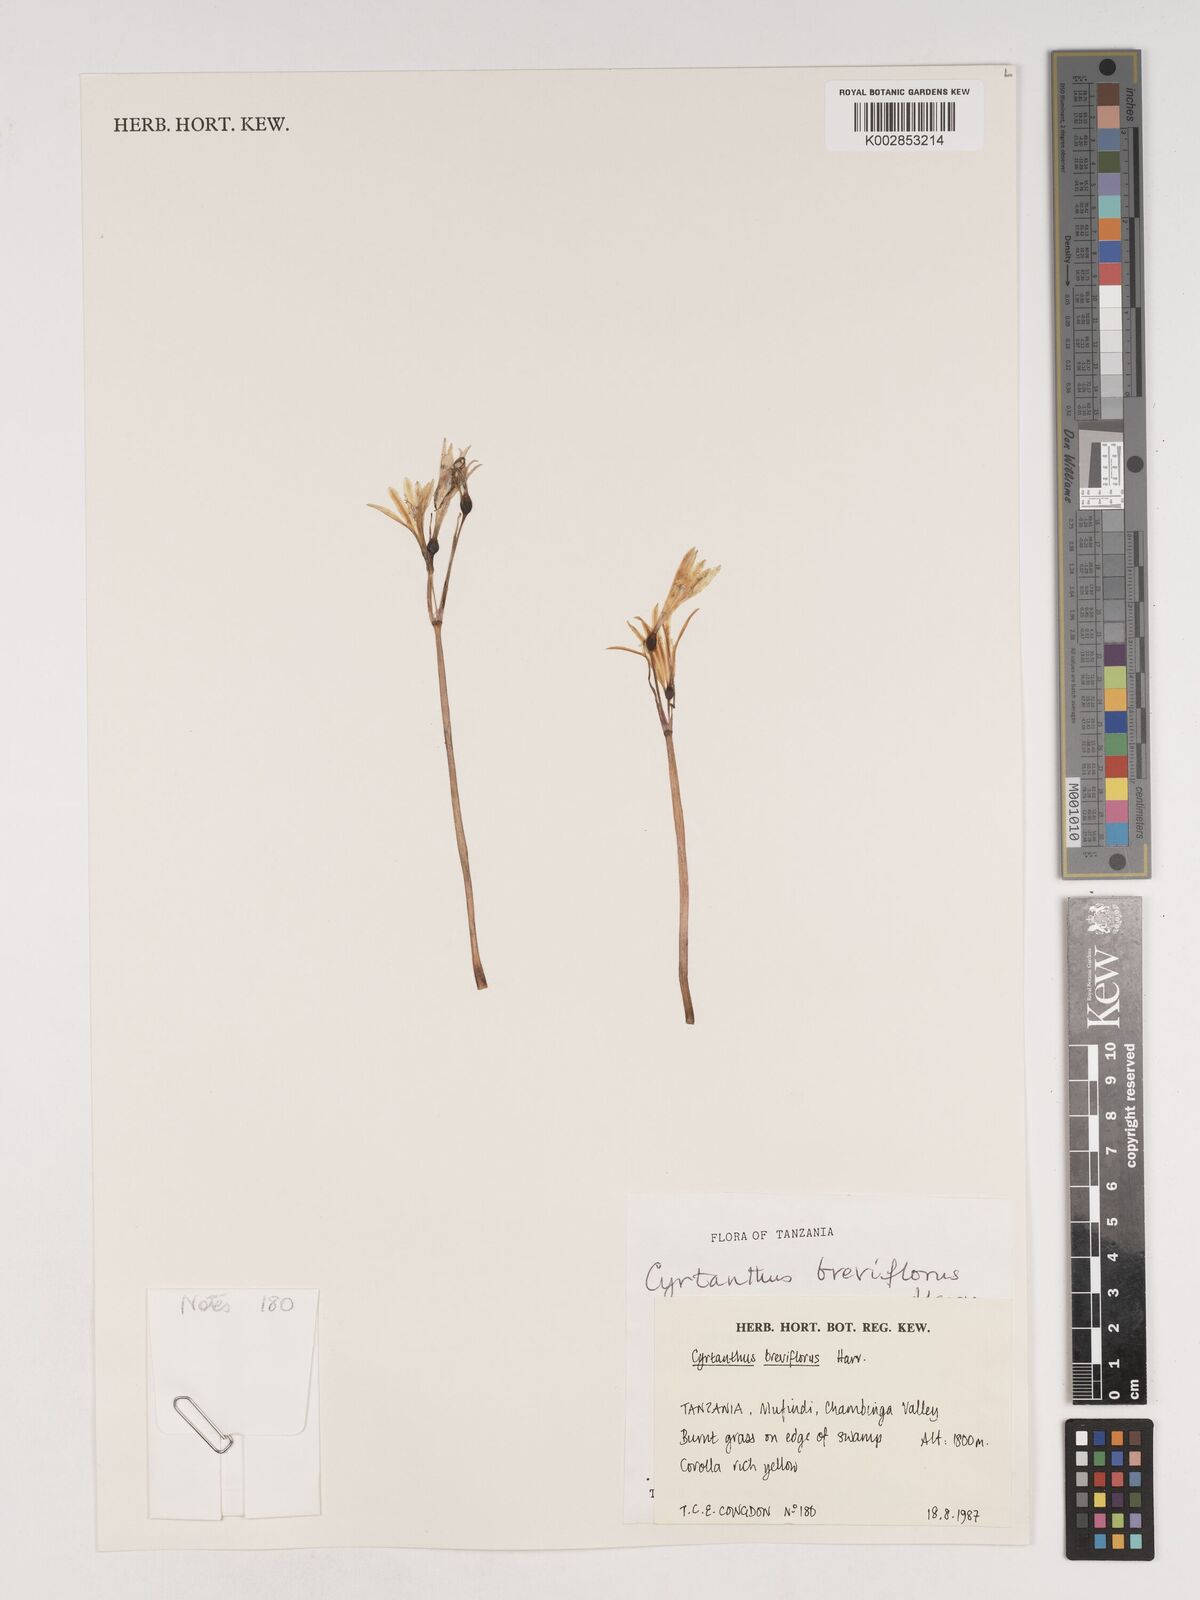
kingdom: Plantae
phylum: Tracheophyta
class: Liliopsida
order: Asparagales
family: Amaryllidaceae
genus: Cyrtanthus
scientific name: Cyrtanthus breviflorus
